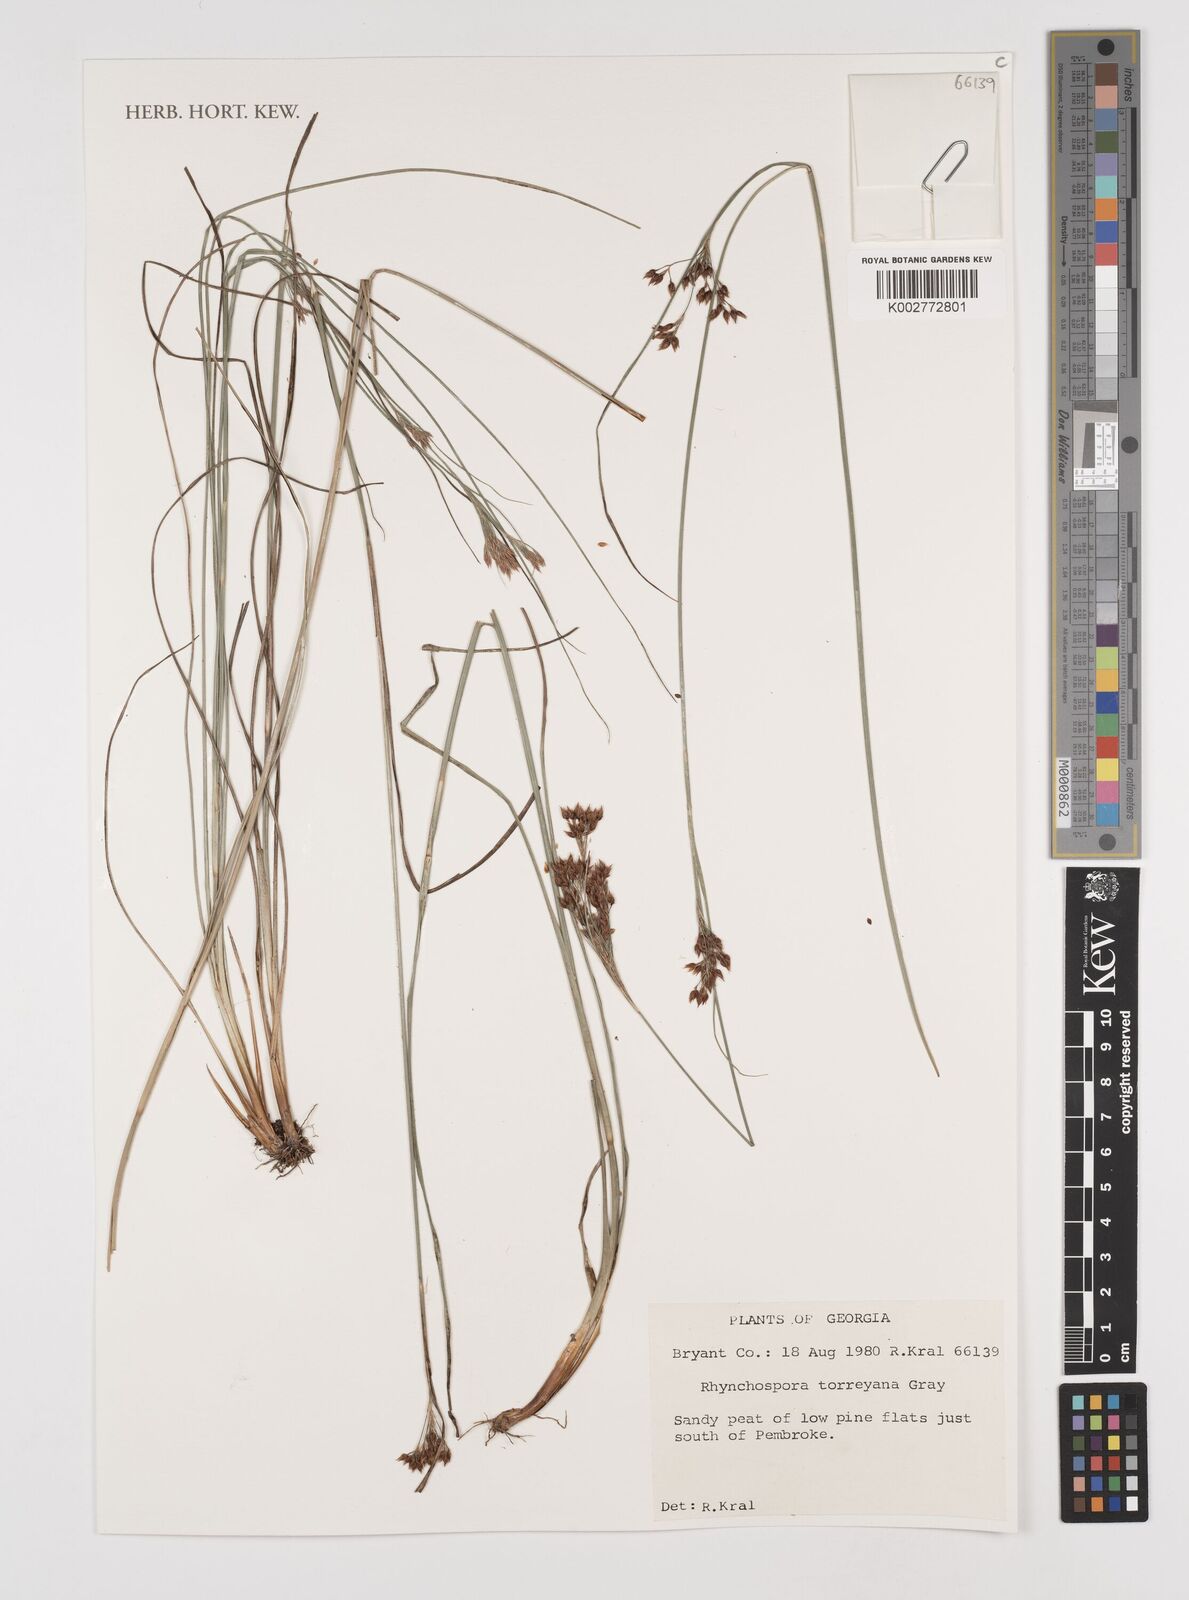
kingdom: Plantae
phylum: Tracheophyta
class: Liliopsida
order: Poales
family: Cyperaceae
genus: Rhynchospora
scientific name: Rhynchospora torreyana
